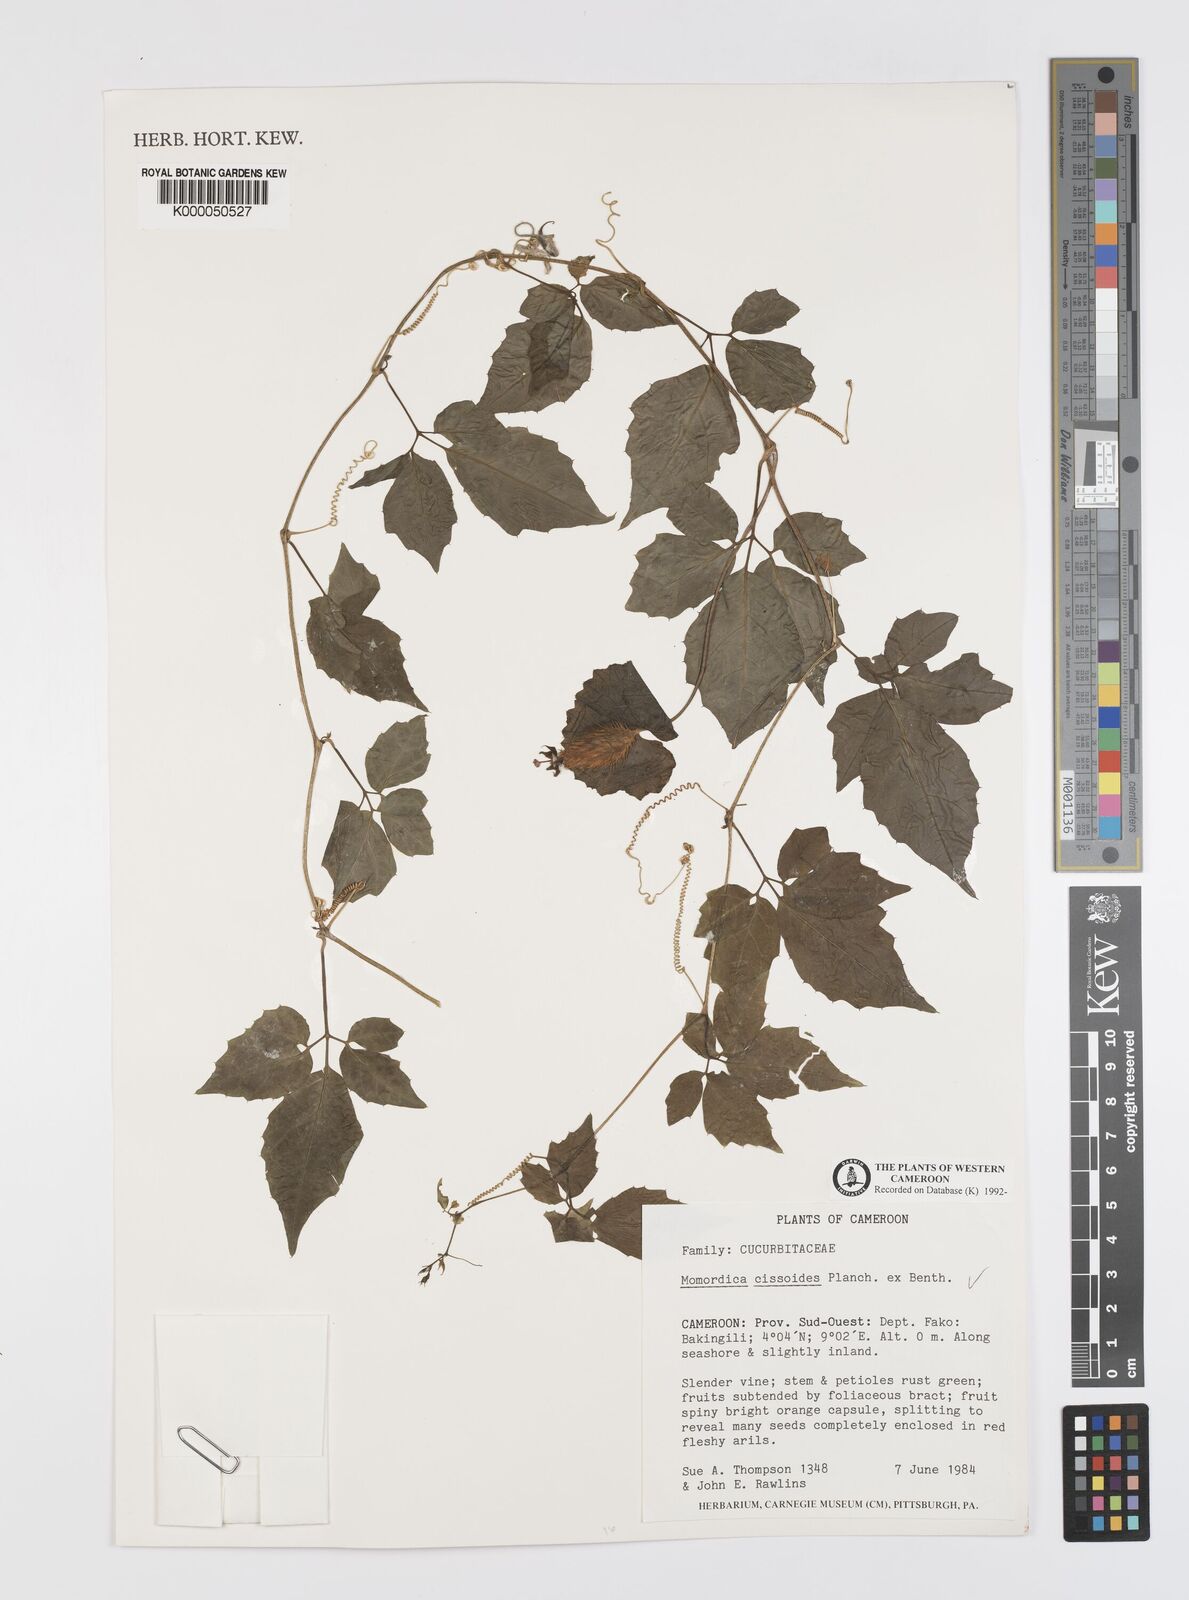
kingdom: Plantae
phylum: Tracheophyta
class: Magnoliopsida
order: Cucurbitales
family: Cucurbitaceae
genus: Momordica
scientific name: Momordica cissoides
